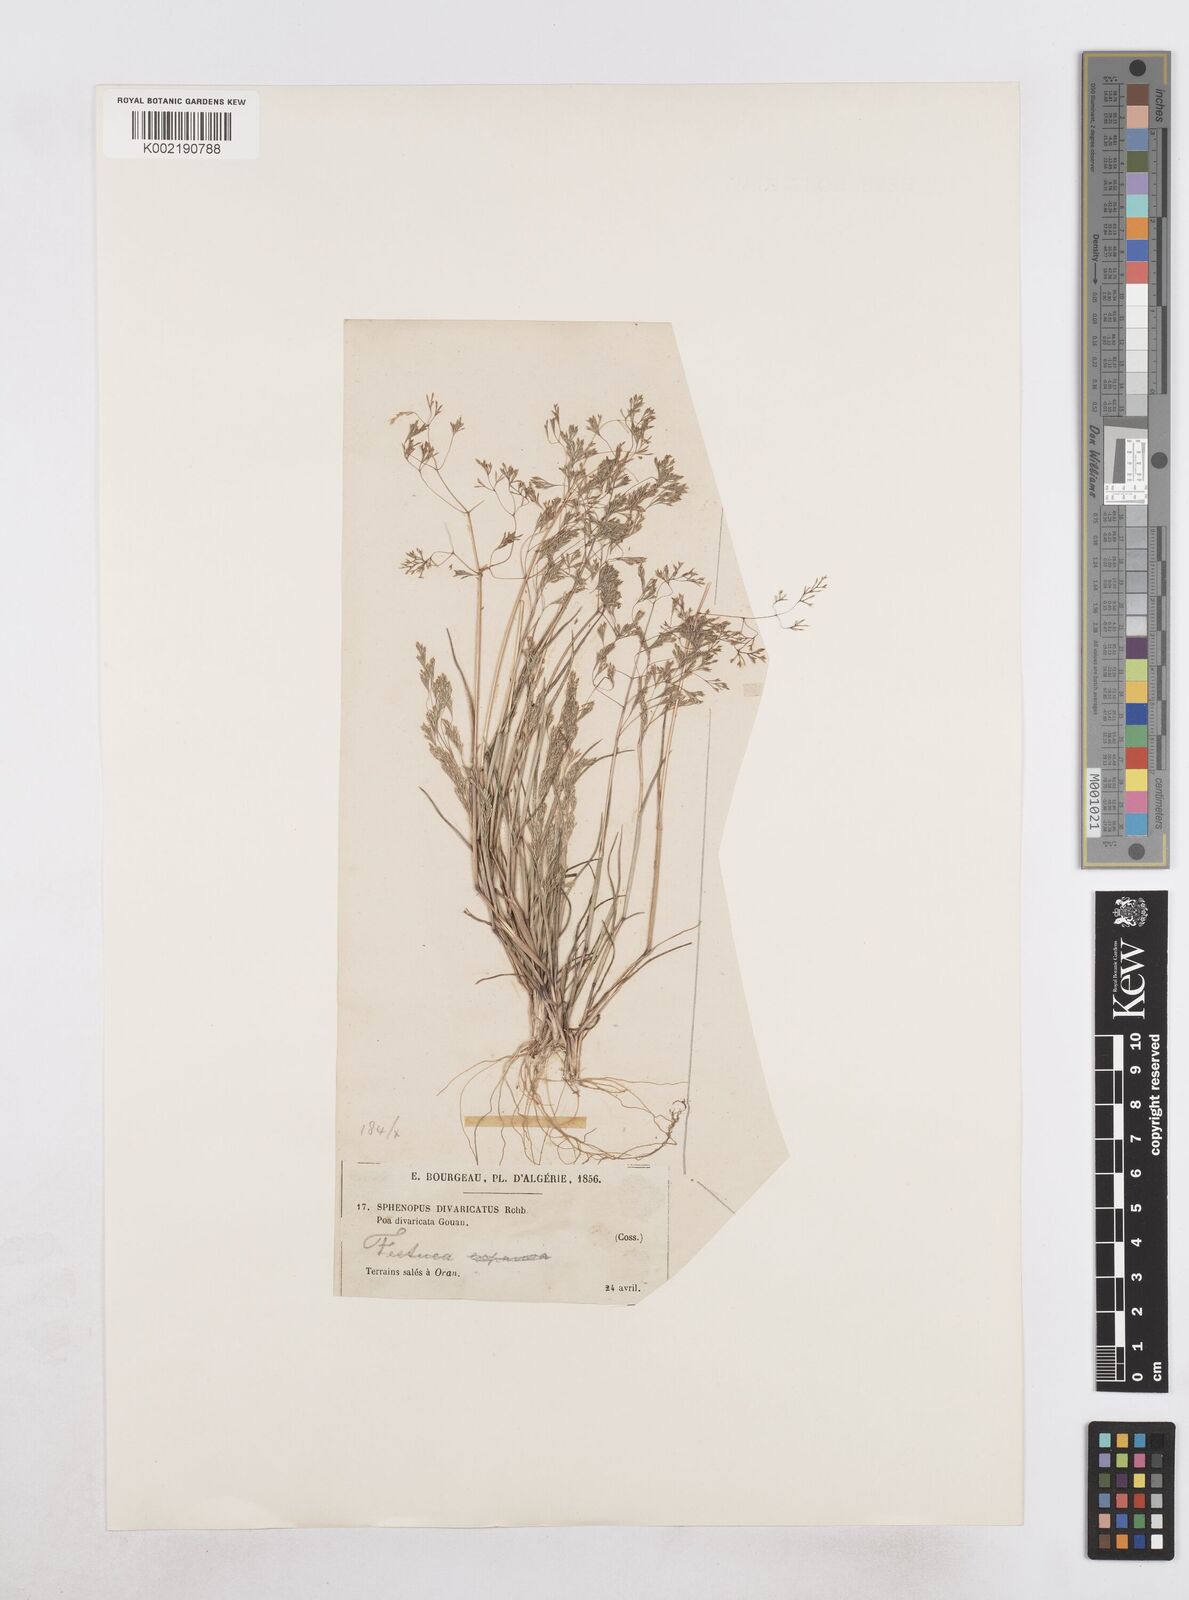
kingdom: Plantae
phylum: Tracheophyta
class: Liliopsida
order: Poales
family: Poaceae
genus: Sphenopus
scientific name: Sphenopus divaricatus
